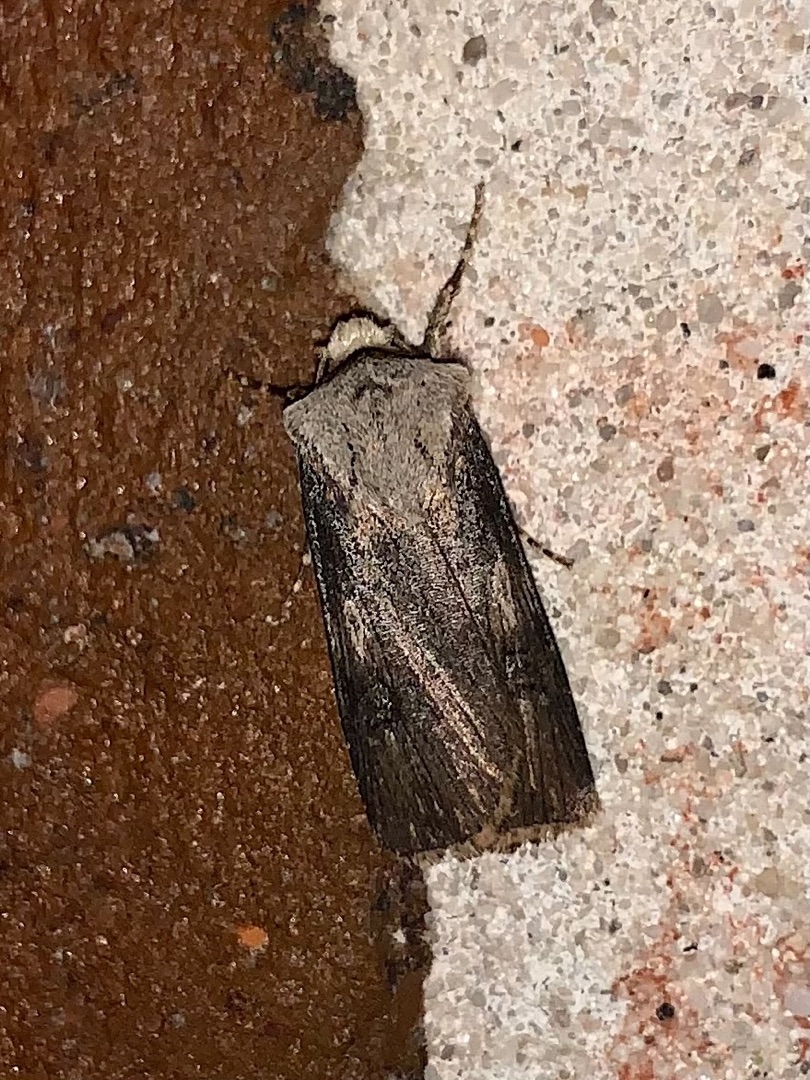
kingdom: Animalia
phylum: Arthropoda
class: Insecta
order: Lepidoptera
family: Noctuidae
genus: Agrotis
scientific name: Agrotis puta
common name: Frønnet landmand
